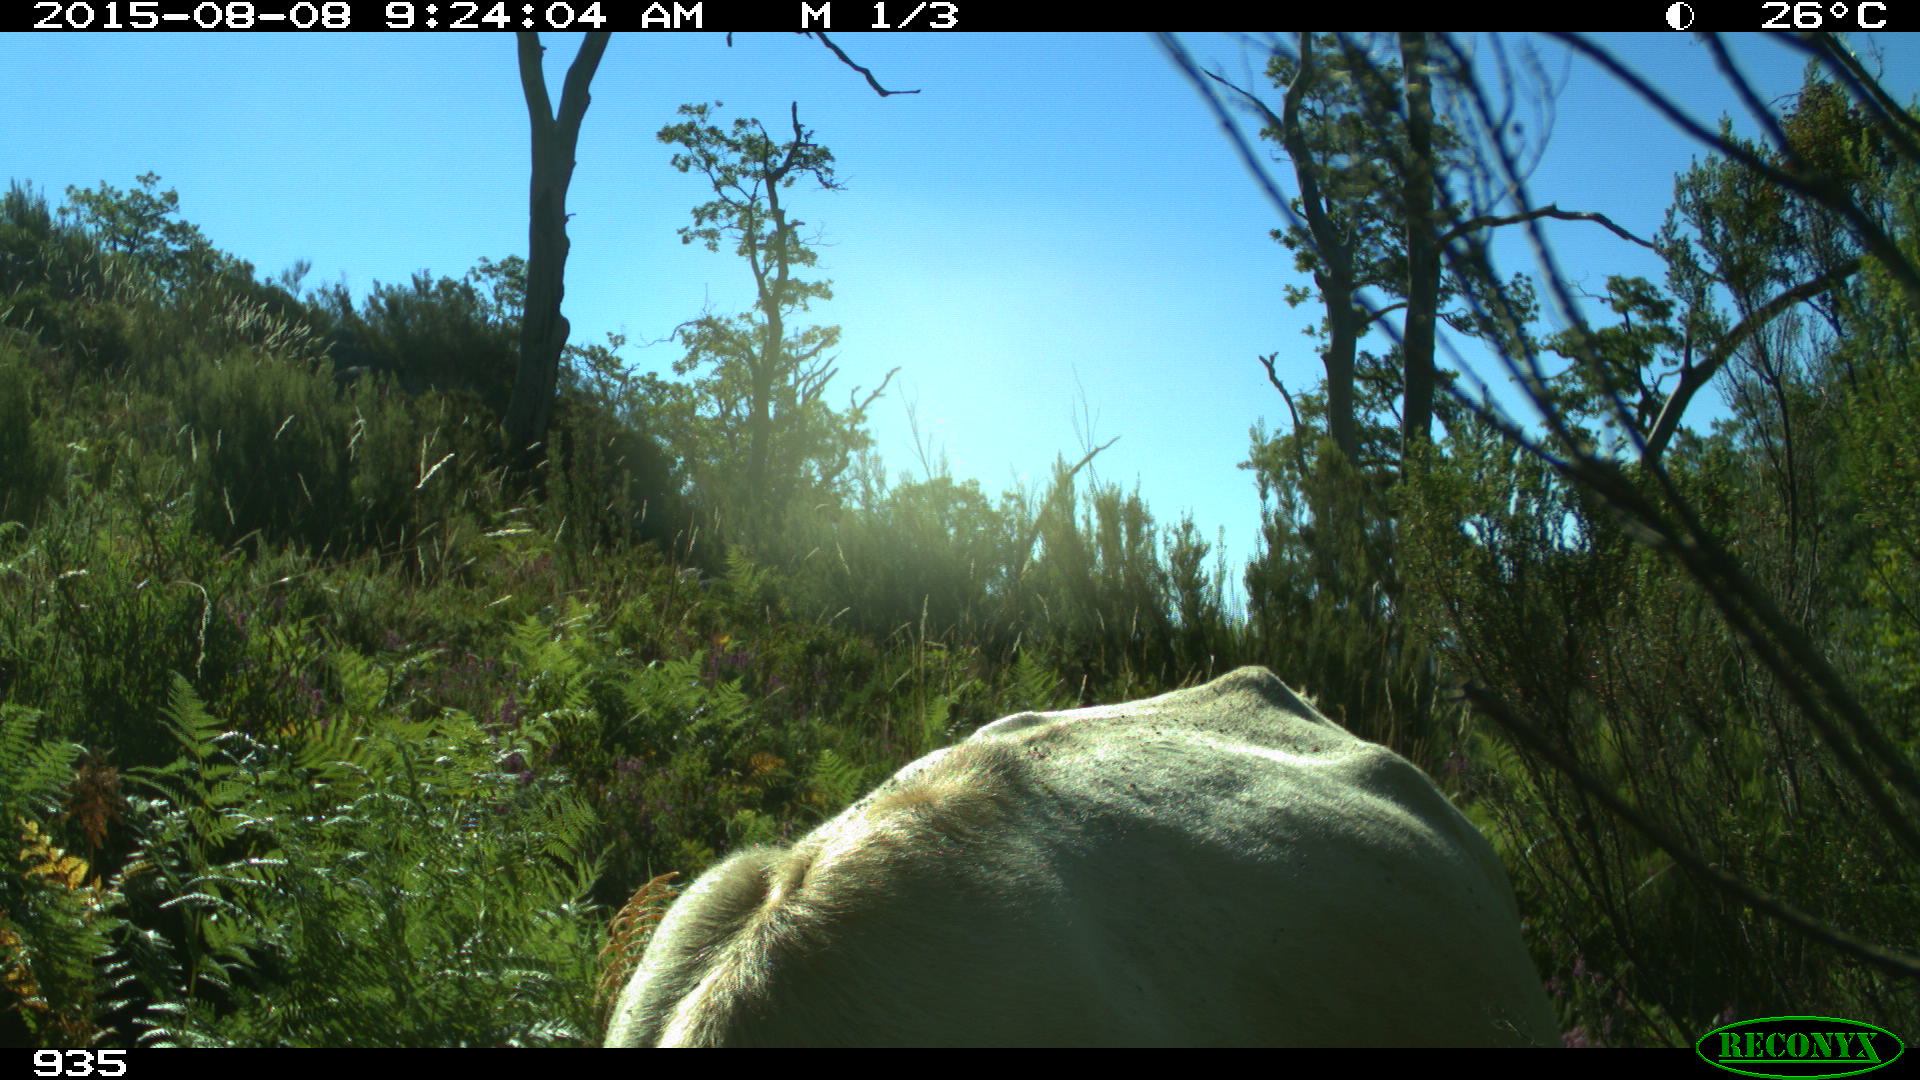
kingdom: Animalia
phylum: Chordata
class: Mammalia
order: Artiodactyla
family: Bovidae
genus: Bos
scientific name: Bos taurus
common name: Domesticated cattle
